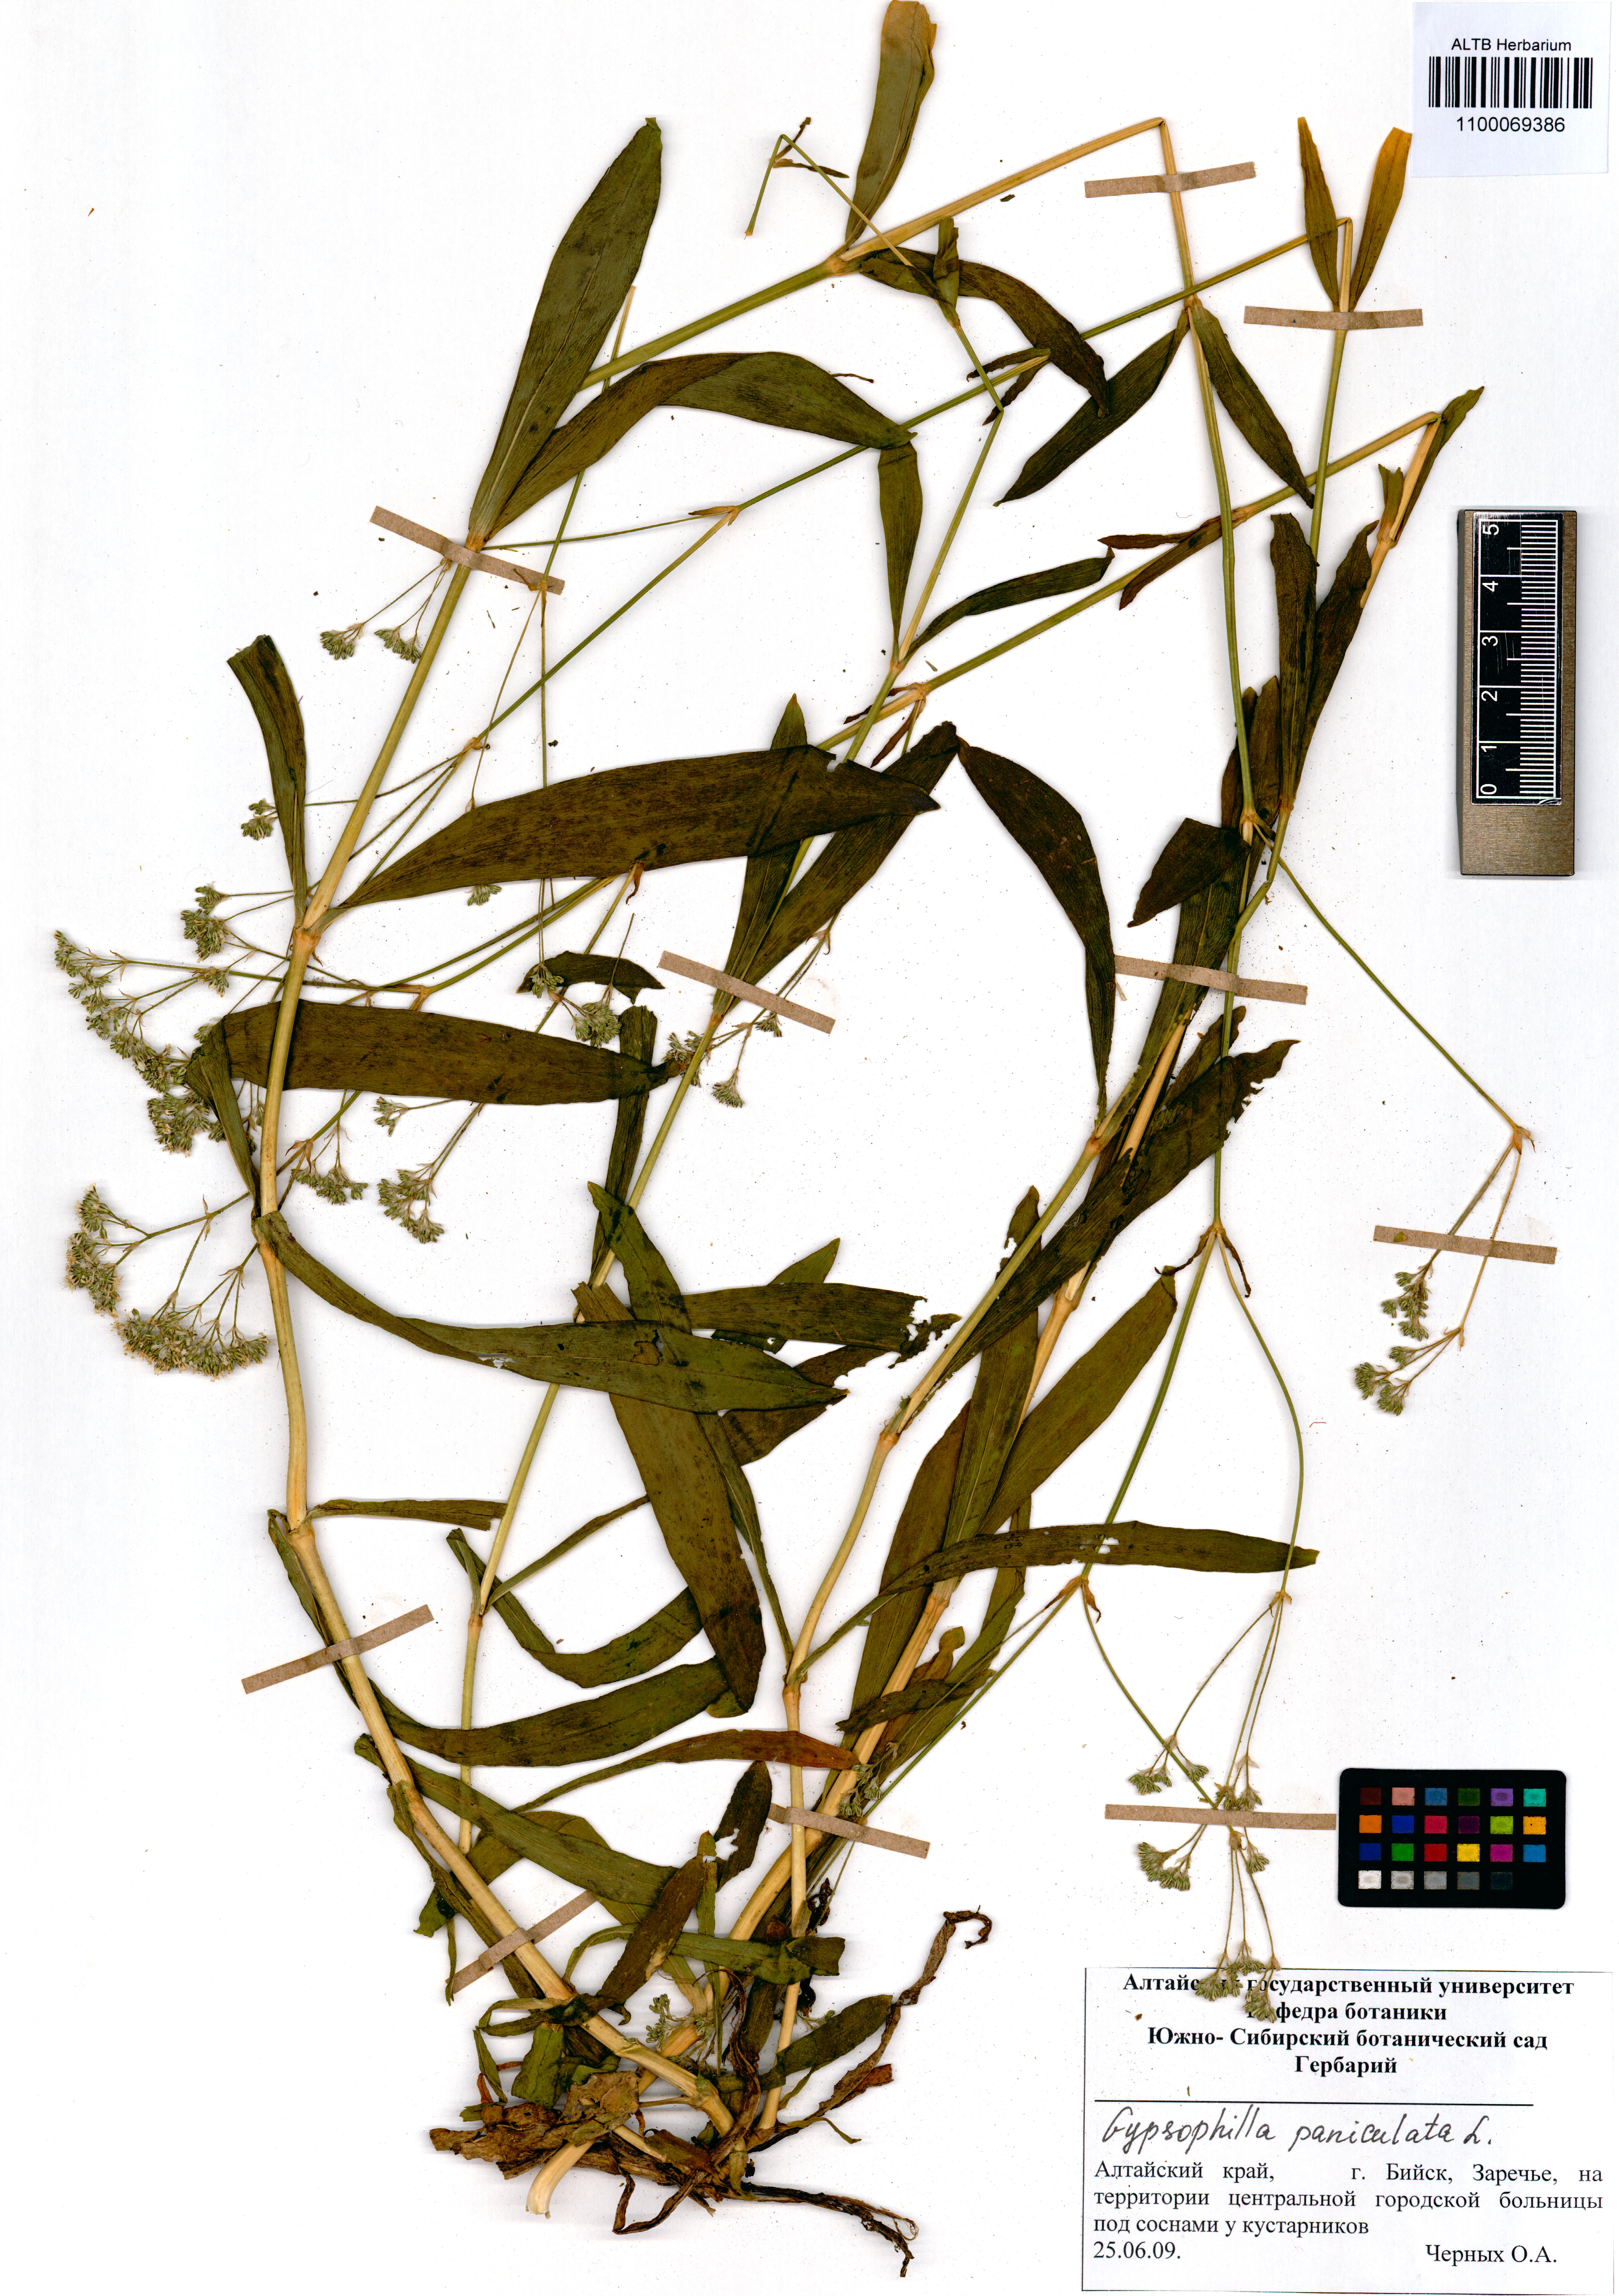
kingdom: Plantae
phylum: Tracheophyta
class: Magnoliopsida
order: Caryophyllales
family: Caryophyllaceae
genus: Gypsophila
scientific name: Gypsophila paniculata
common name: Baby's-breath
